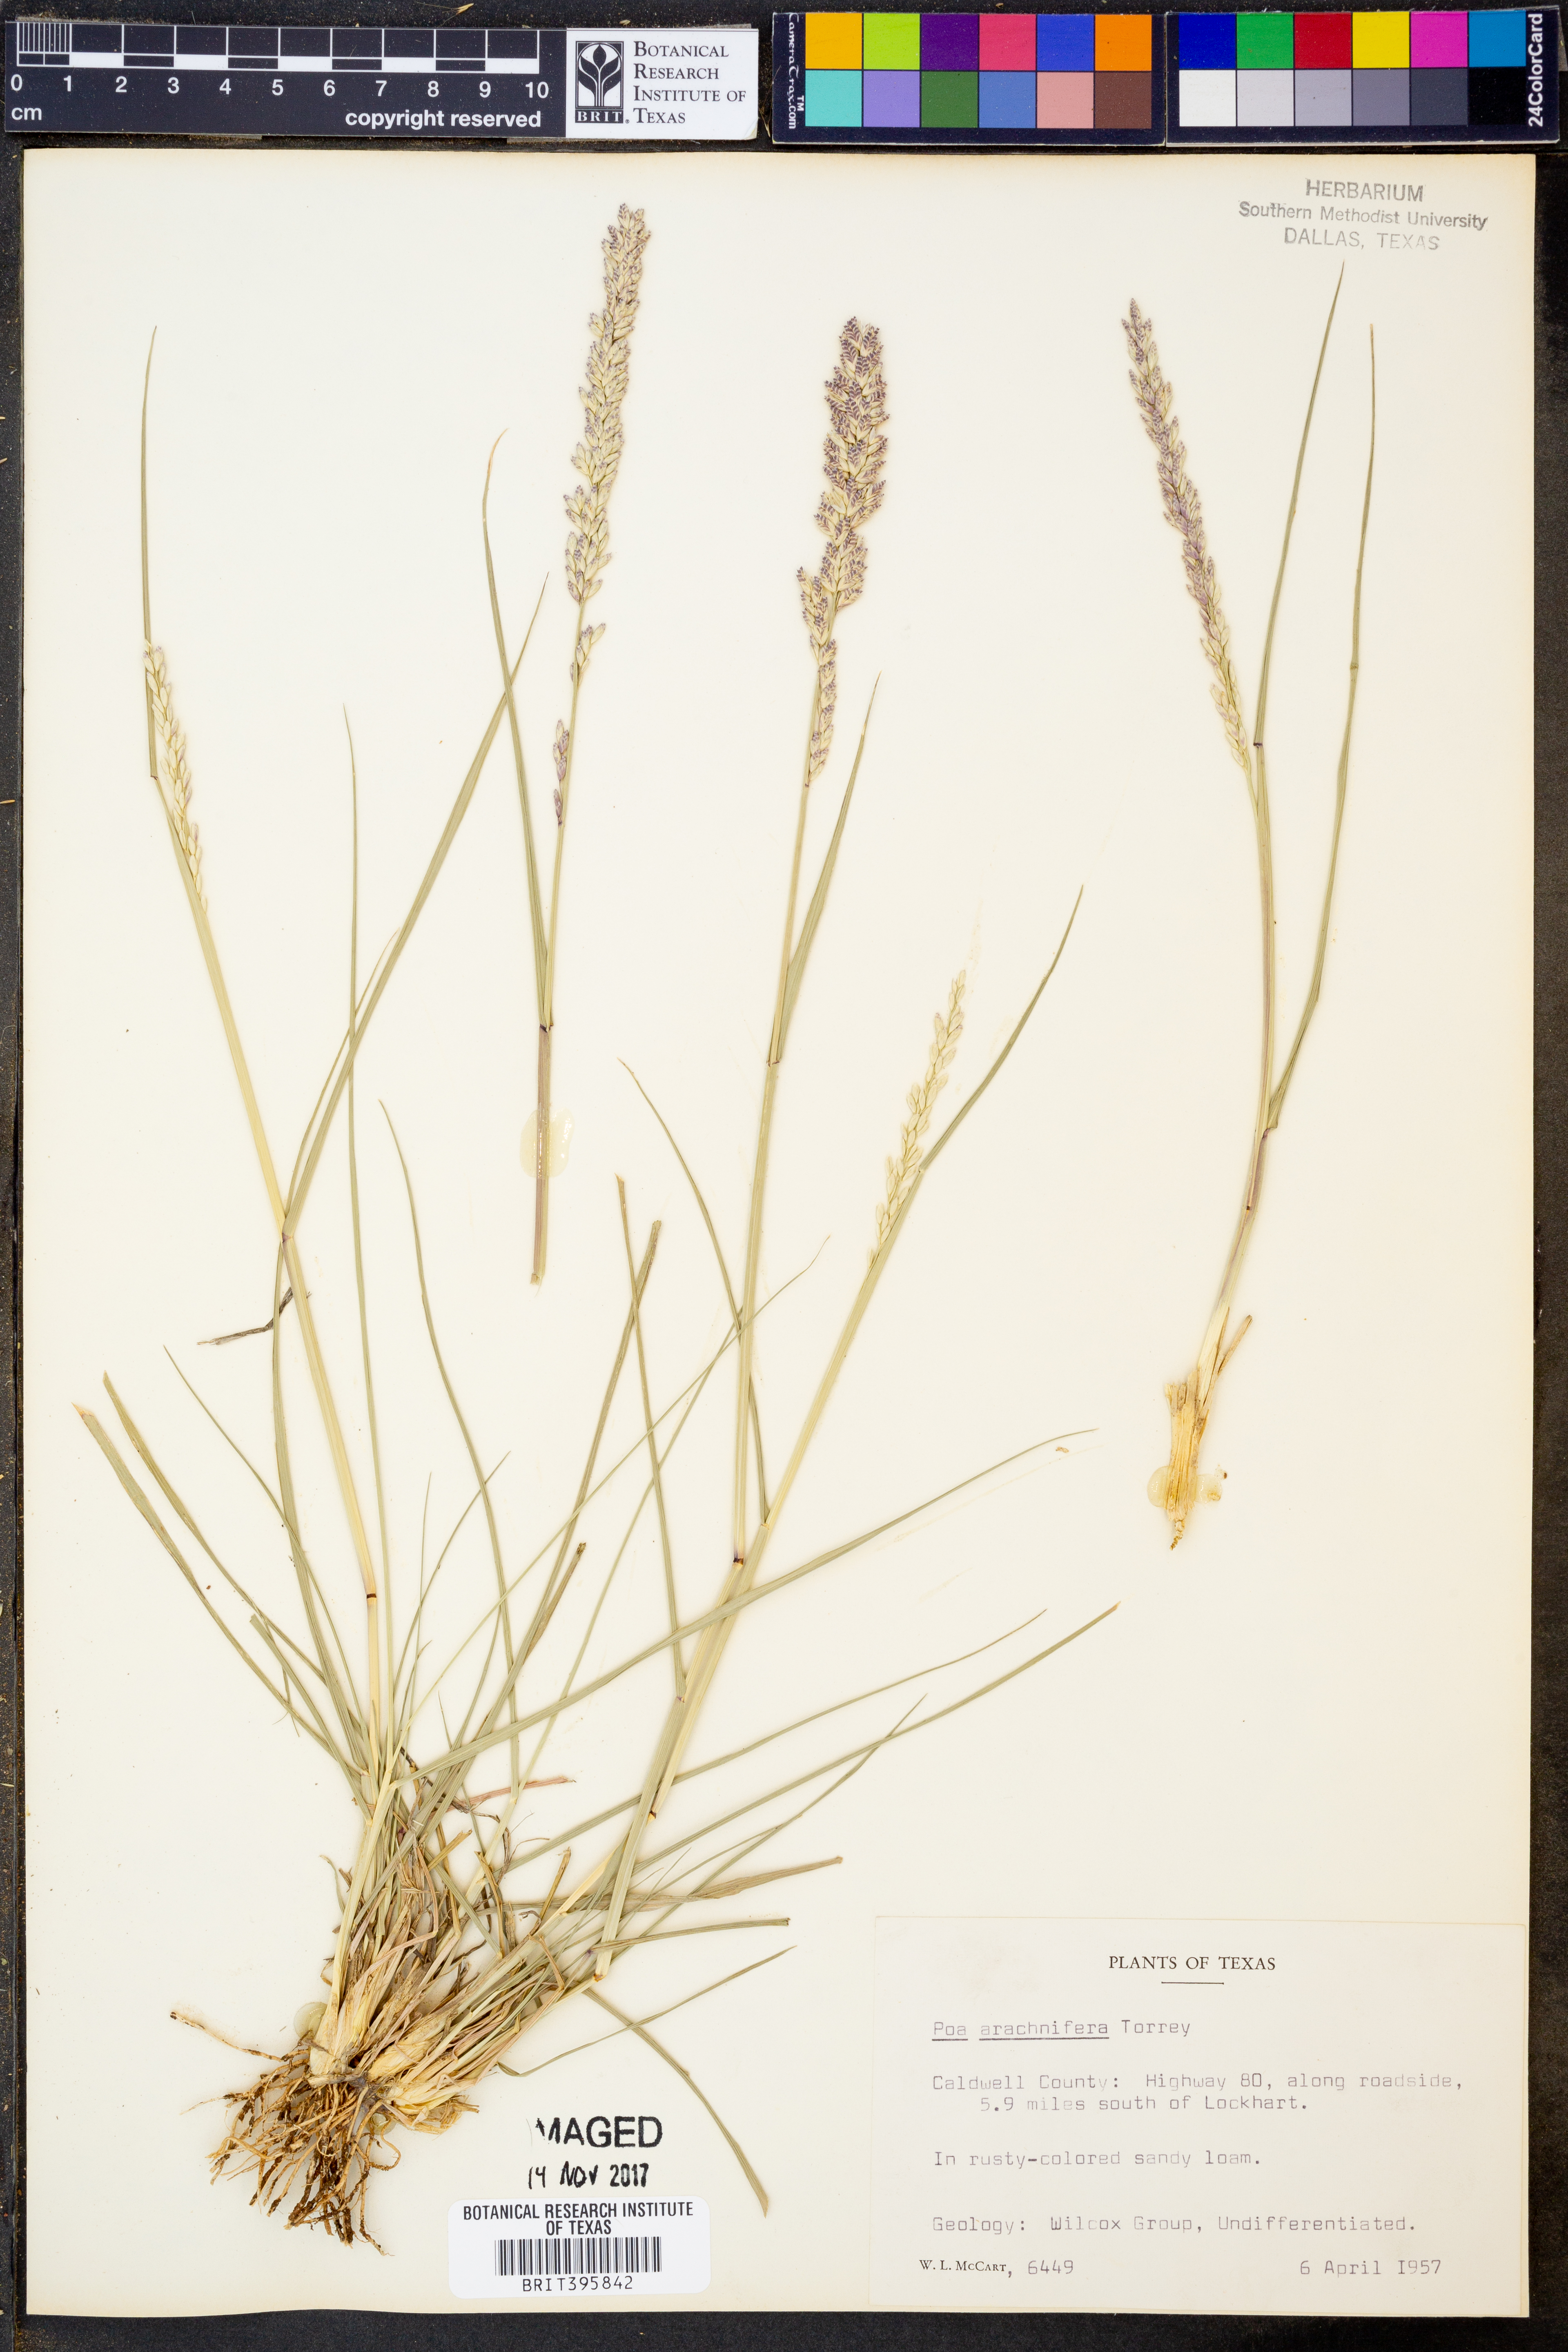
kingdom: Plantae
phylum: Tracheophyta
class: Liliopsida
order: Poales
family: Poaceae
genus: Poa
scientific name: Poa arachnifera
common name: Texas bluegrass
